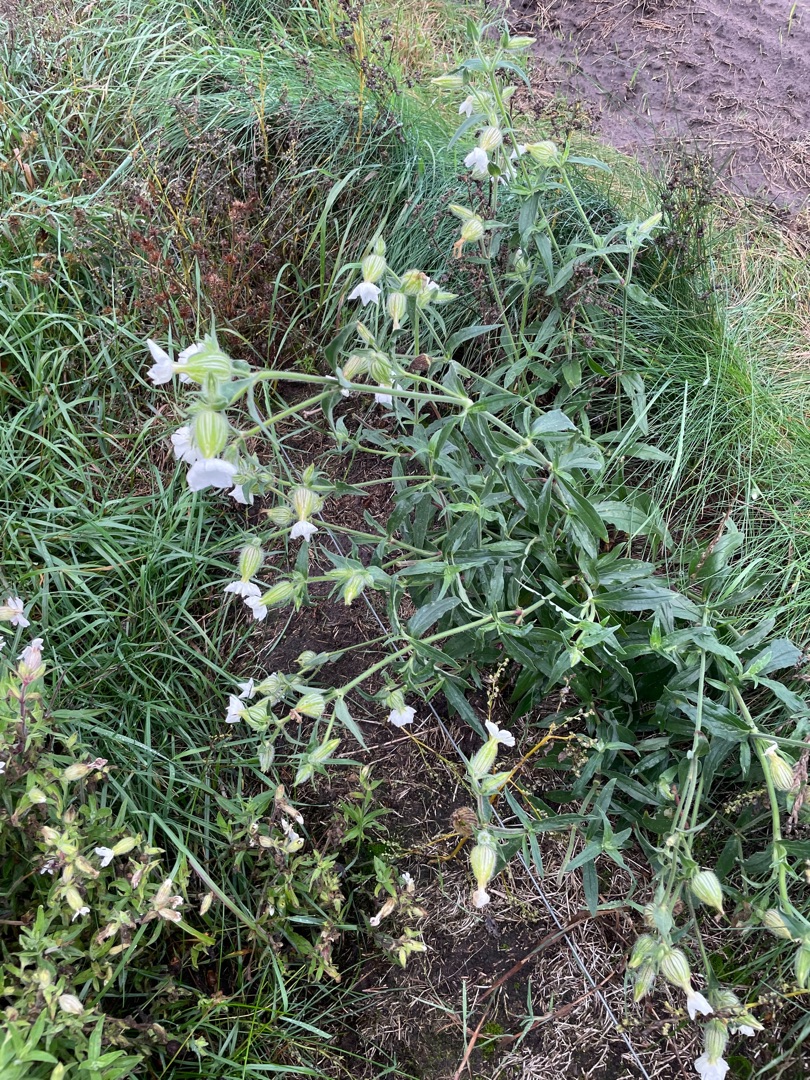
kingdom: Plantae
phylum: Tracheophyta
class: Magnoliopsida
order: Caryophyllales
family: Caryophyllaceae
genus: Silene
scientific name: Silene latifolia
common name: Aftenpragtstjerne
